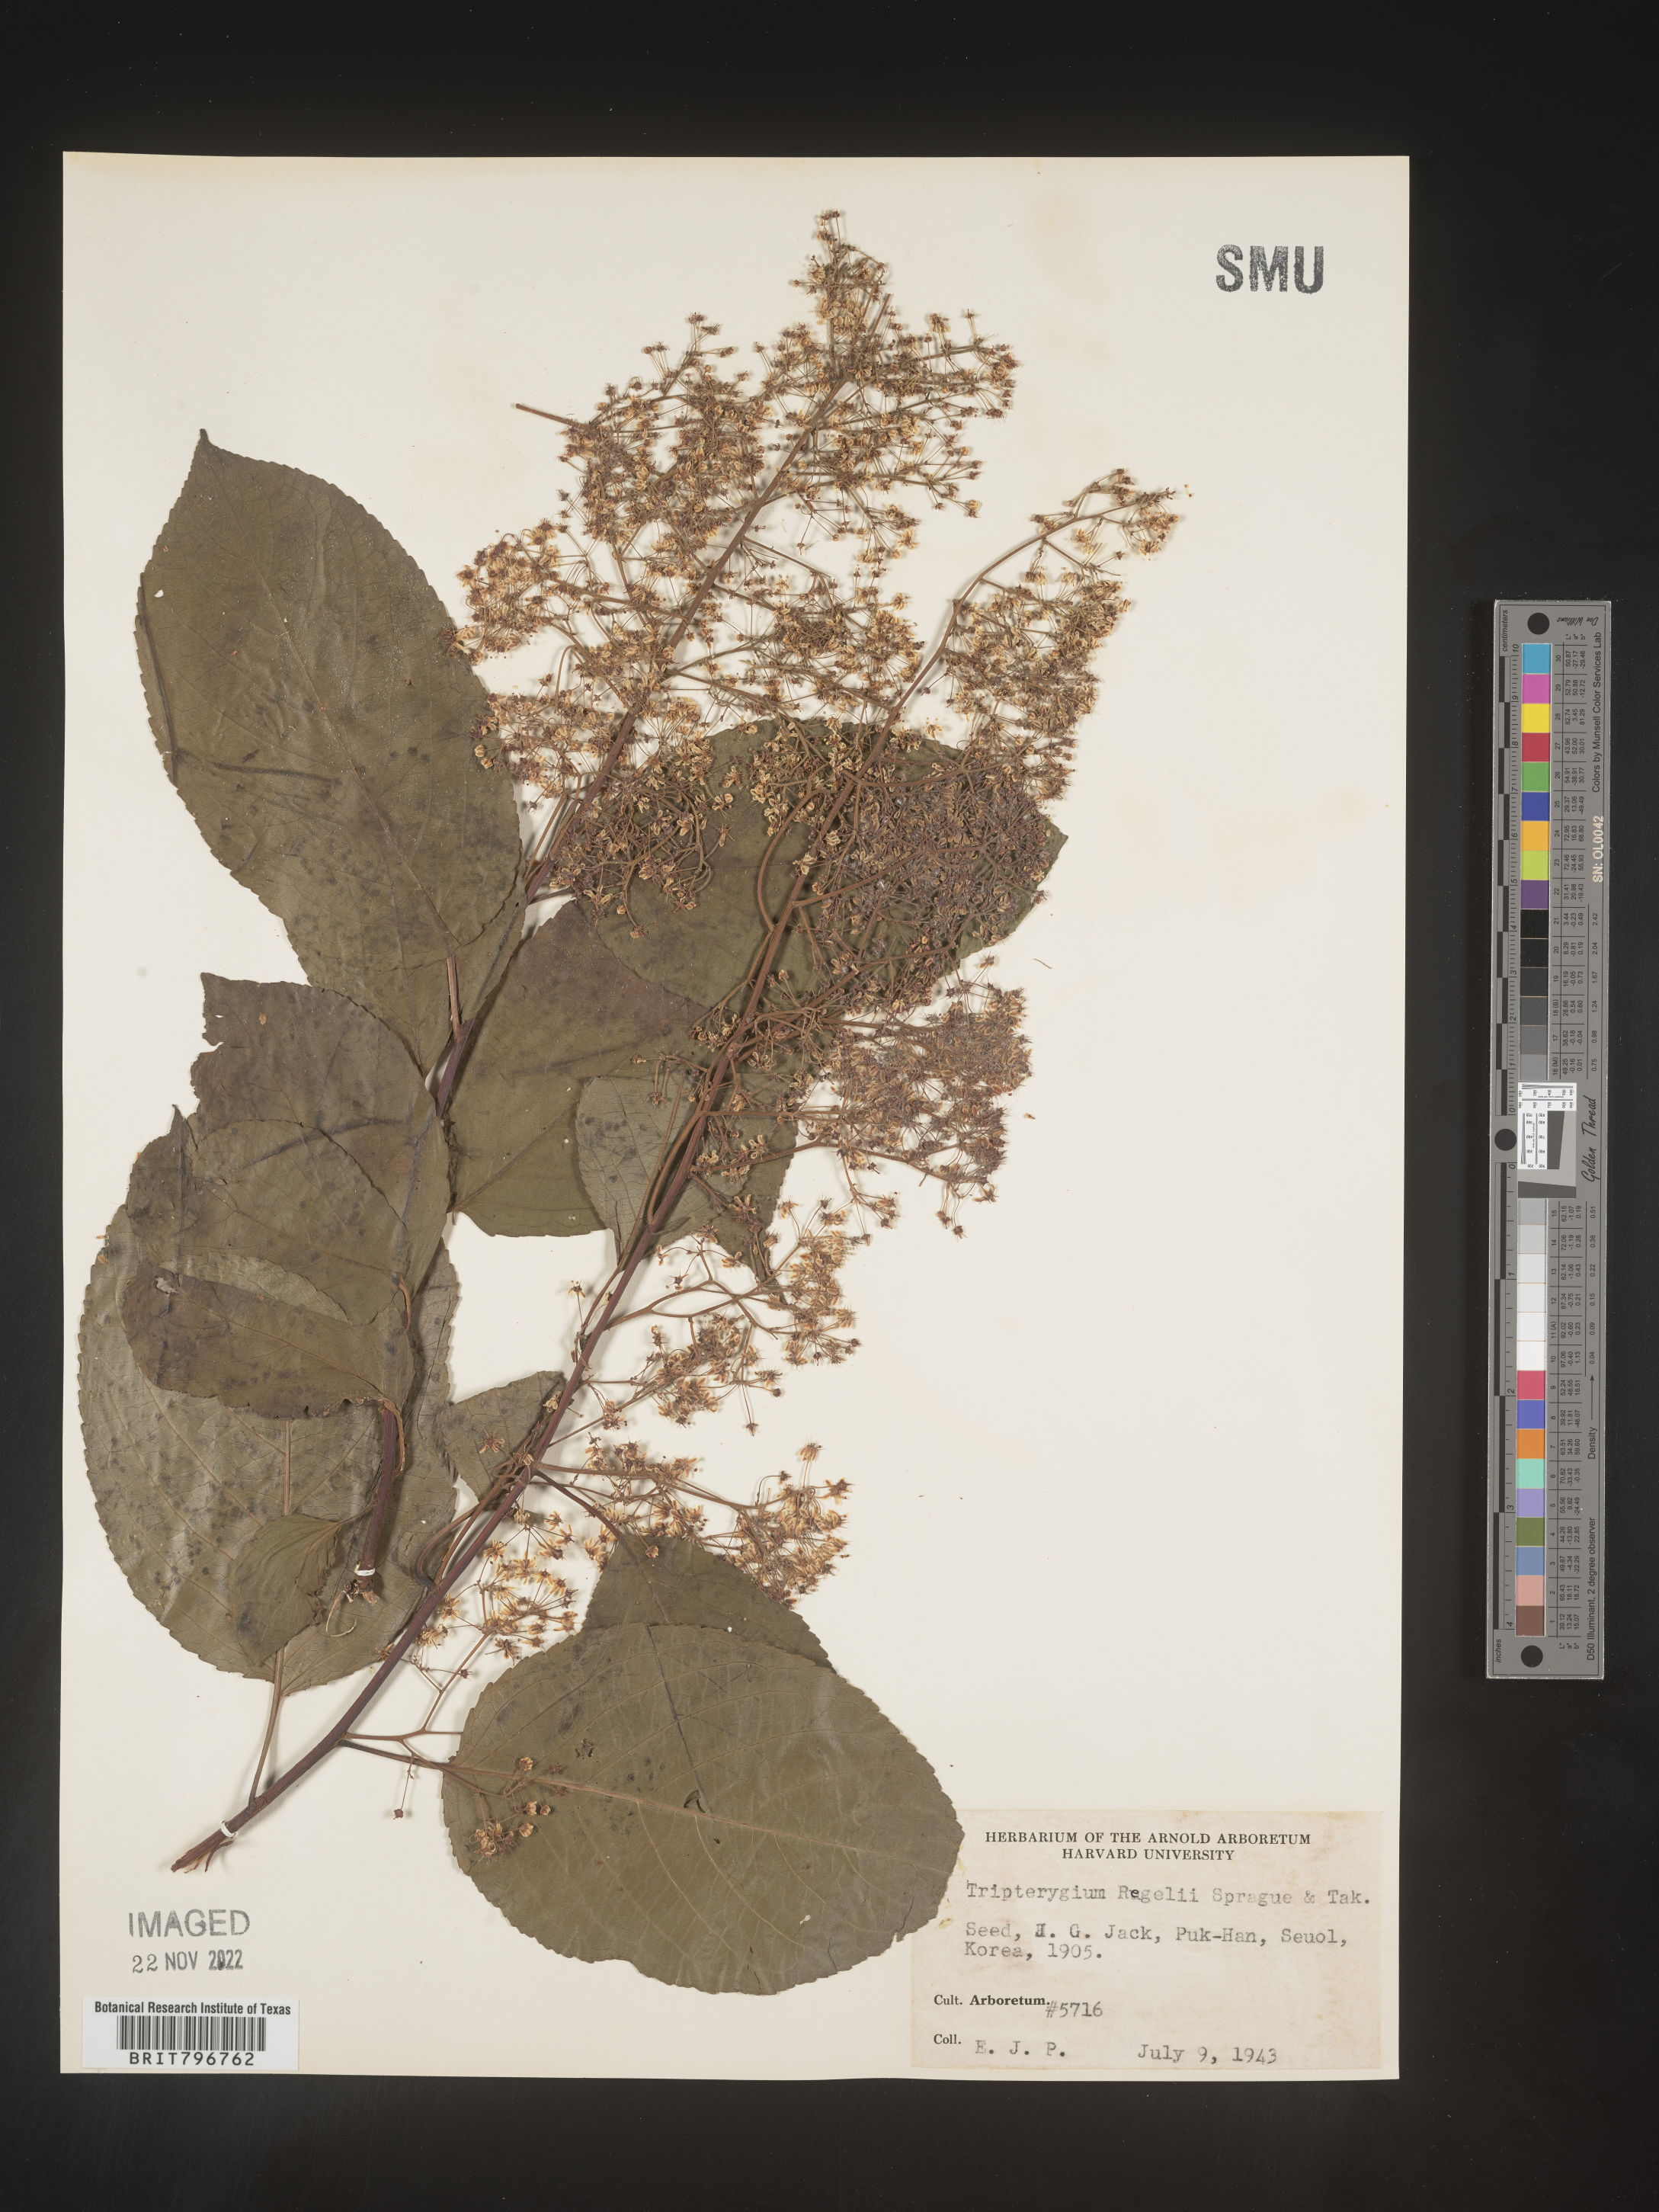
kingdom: Plantae
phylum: Tracheophyta
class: Magnoliopsida
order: Celastrales
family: Celastraceae
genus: Tripterygium
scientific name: Tripterygium
